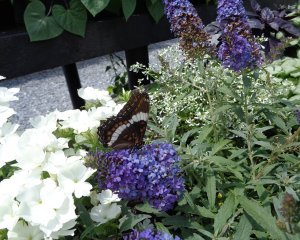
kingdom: Animalia
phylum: Arthropoda
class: Insecta
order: Lepidoptera
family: Nymphalidae
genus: Limenitis
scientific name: Limenitis
